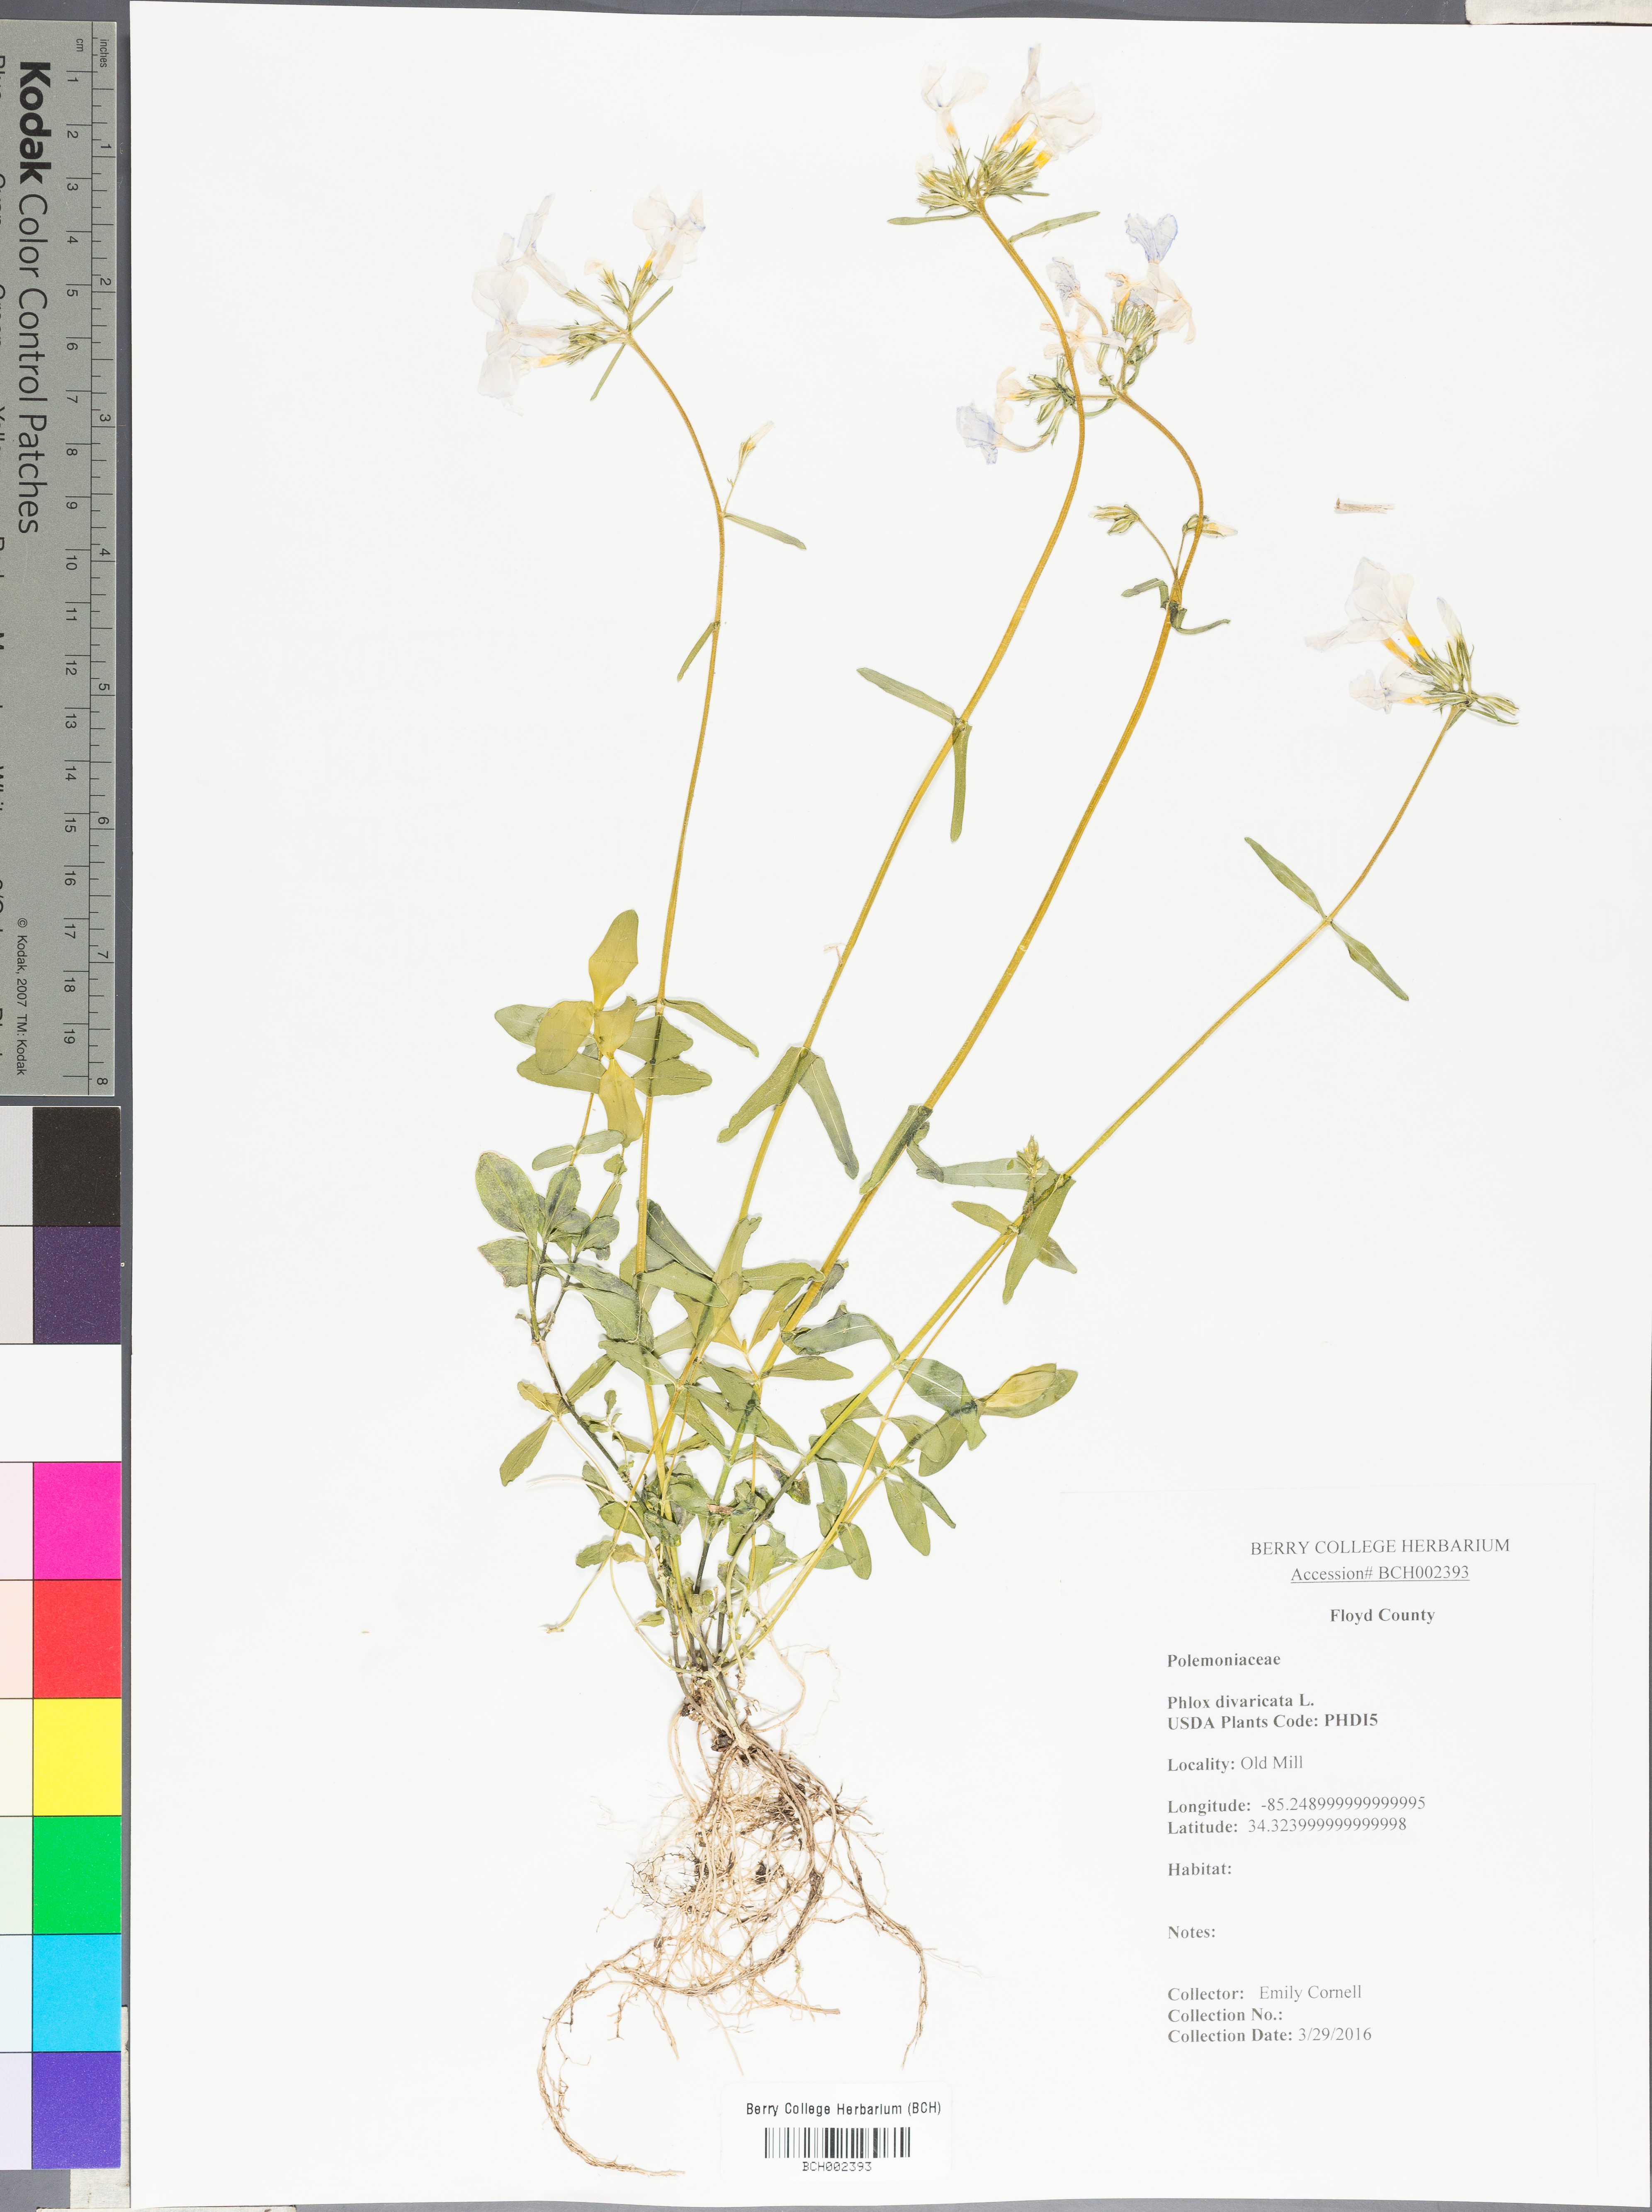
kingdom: Plantae
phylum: Tracheophyta
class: Magnoliopsida
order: Ericales
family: Polemoniaceae
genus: Phlox
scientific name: Phlox divaricata
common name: Blue phlox
